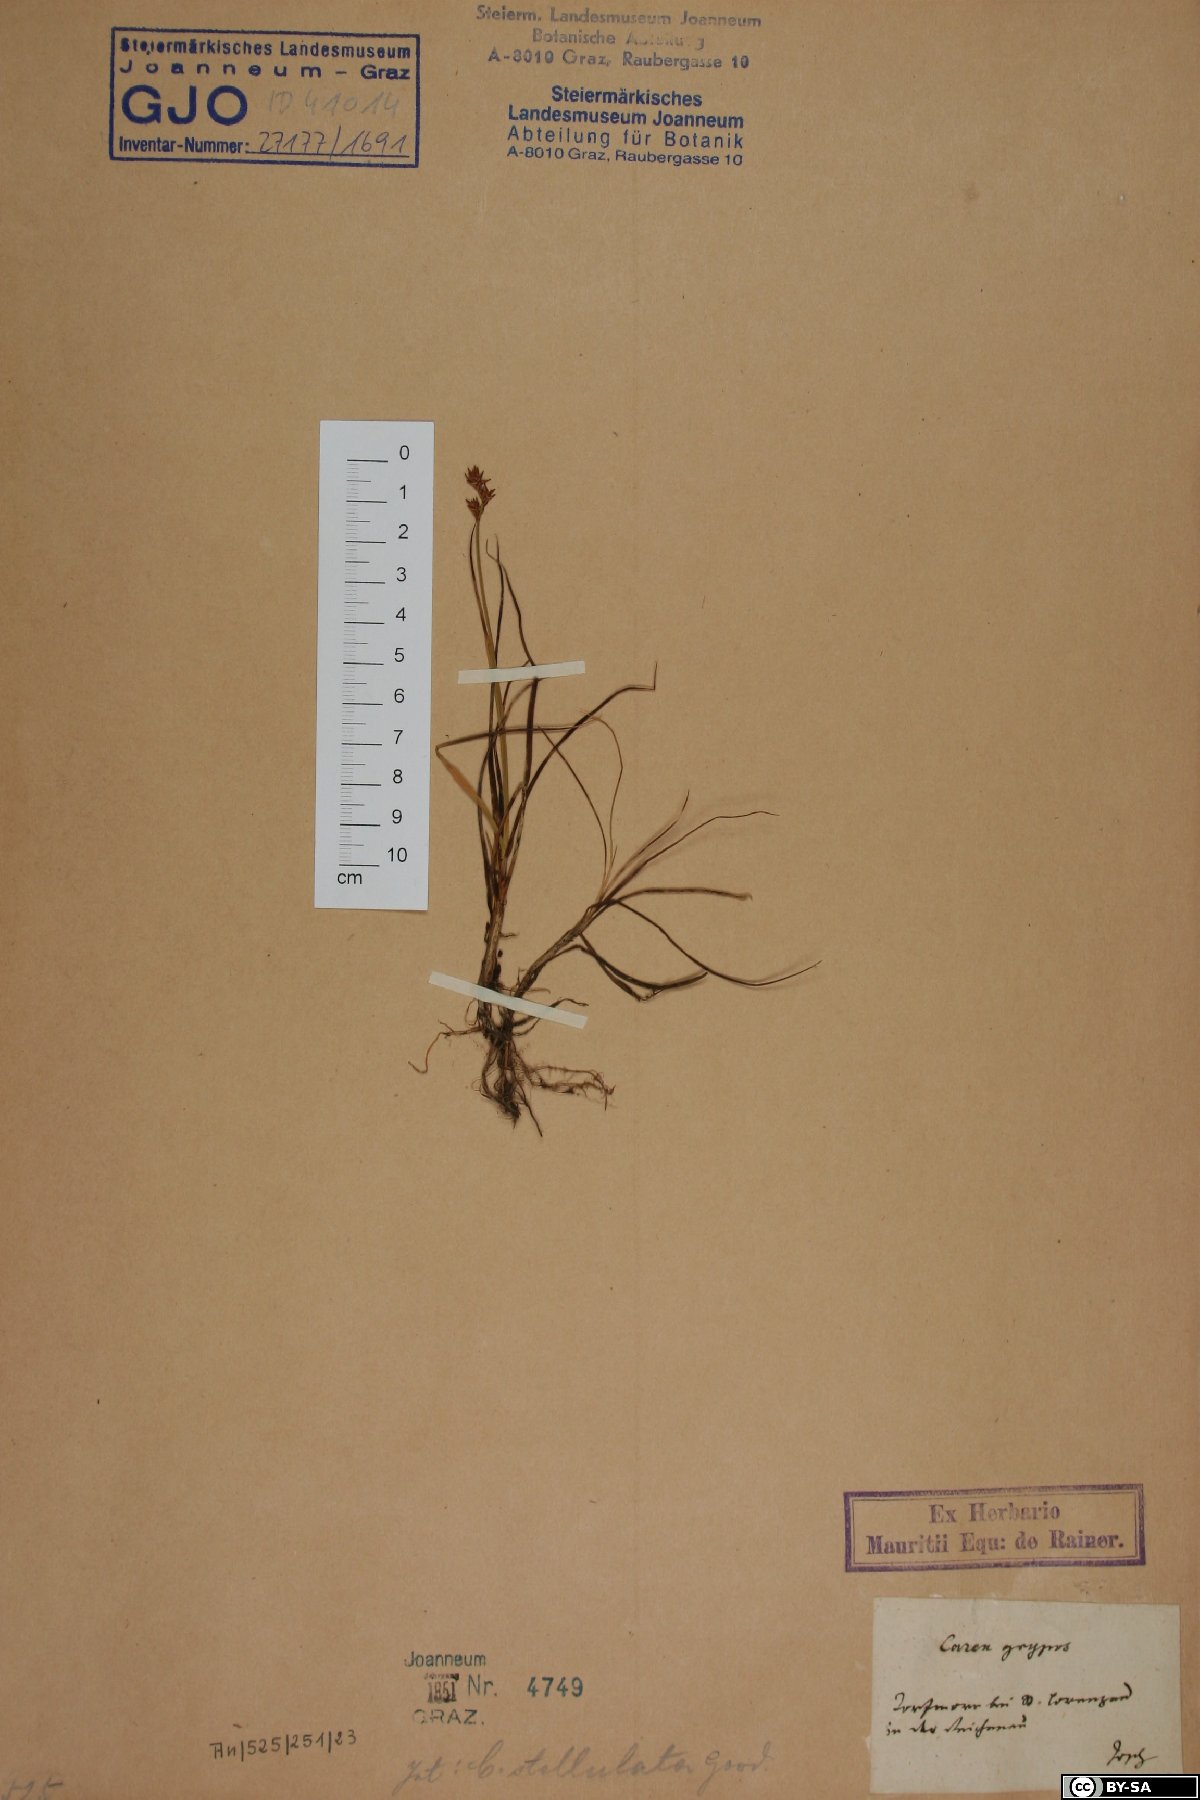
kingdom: Plantae
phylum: Tracheophyta
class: Liliopsida
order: Poales
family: Cyperaceae
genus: Carex
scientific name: Carex echinata
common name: Star sedge
